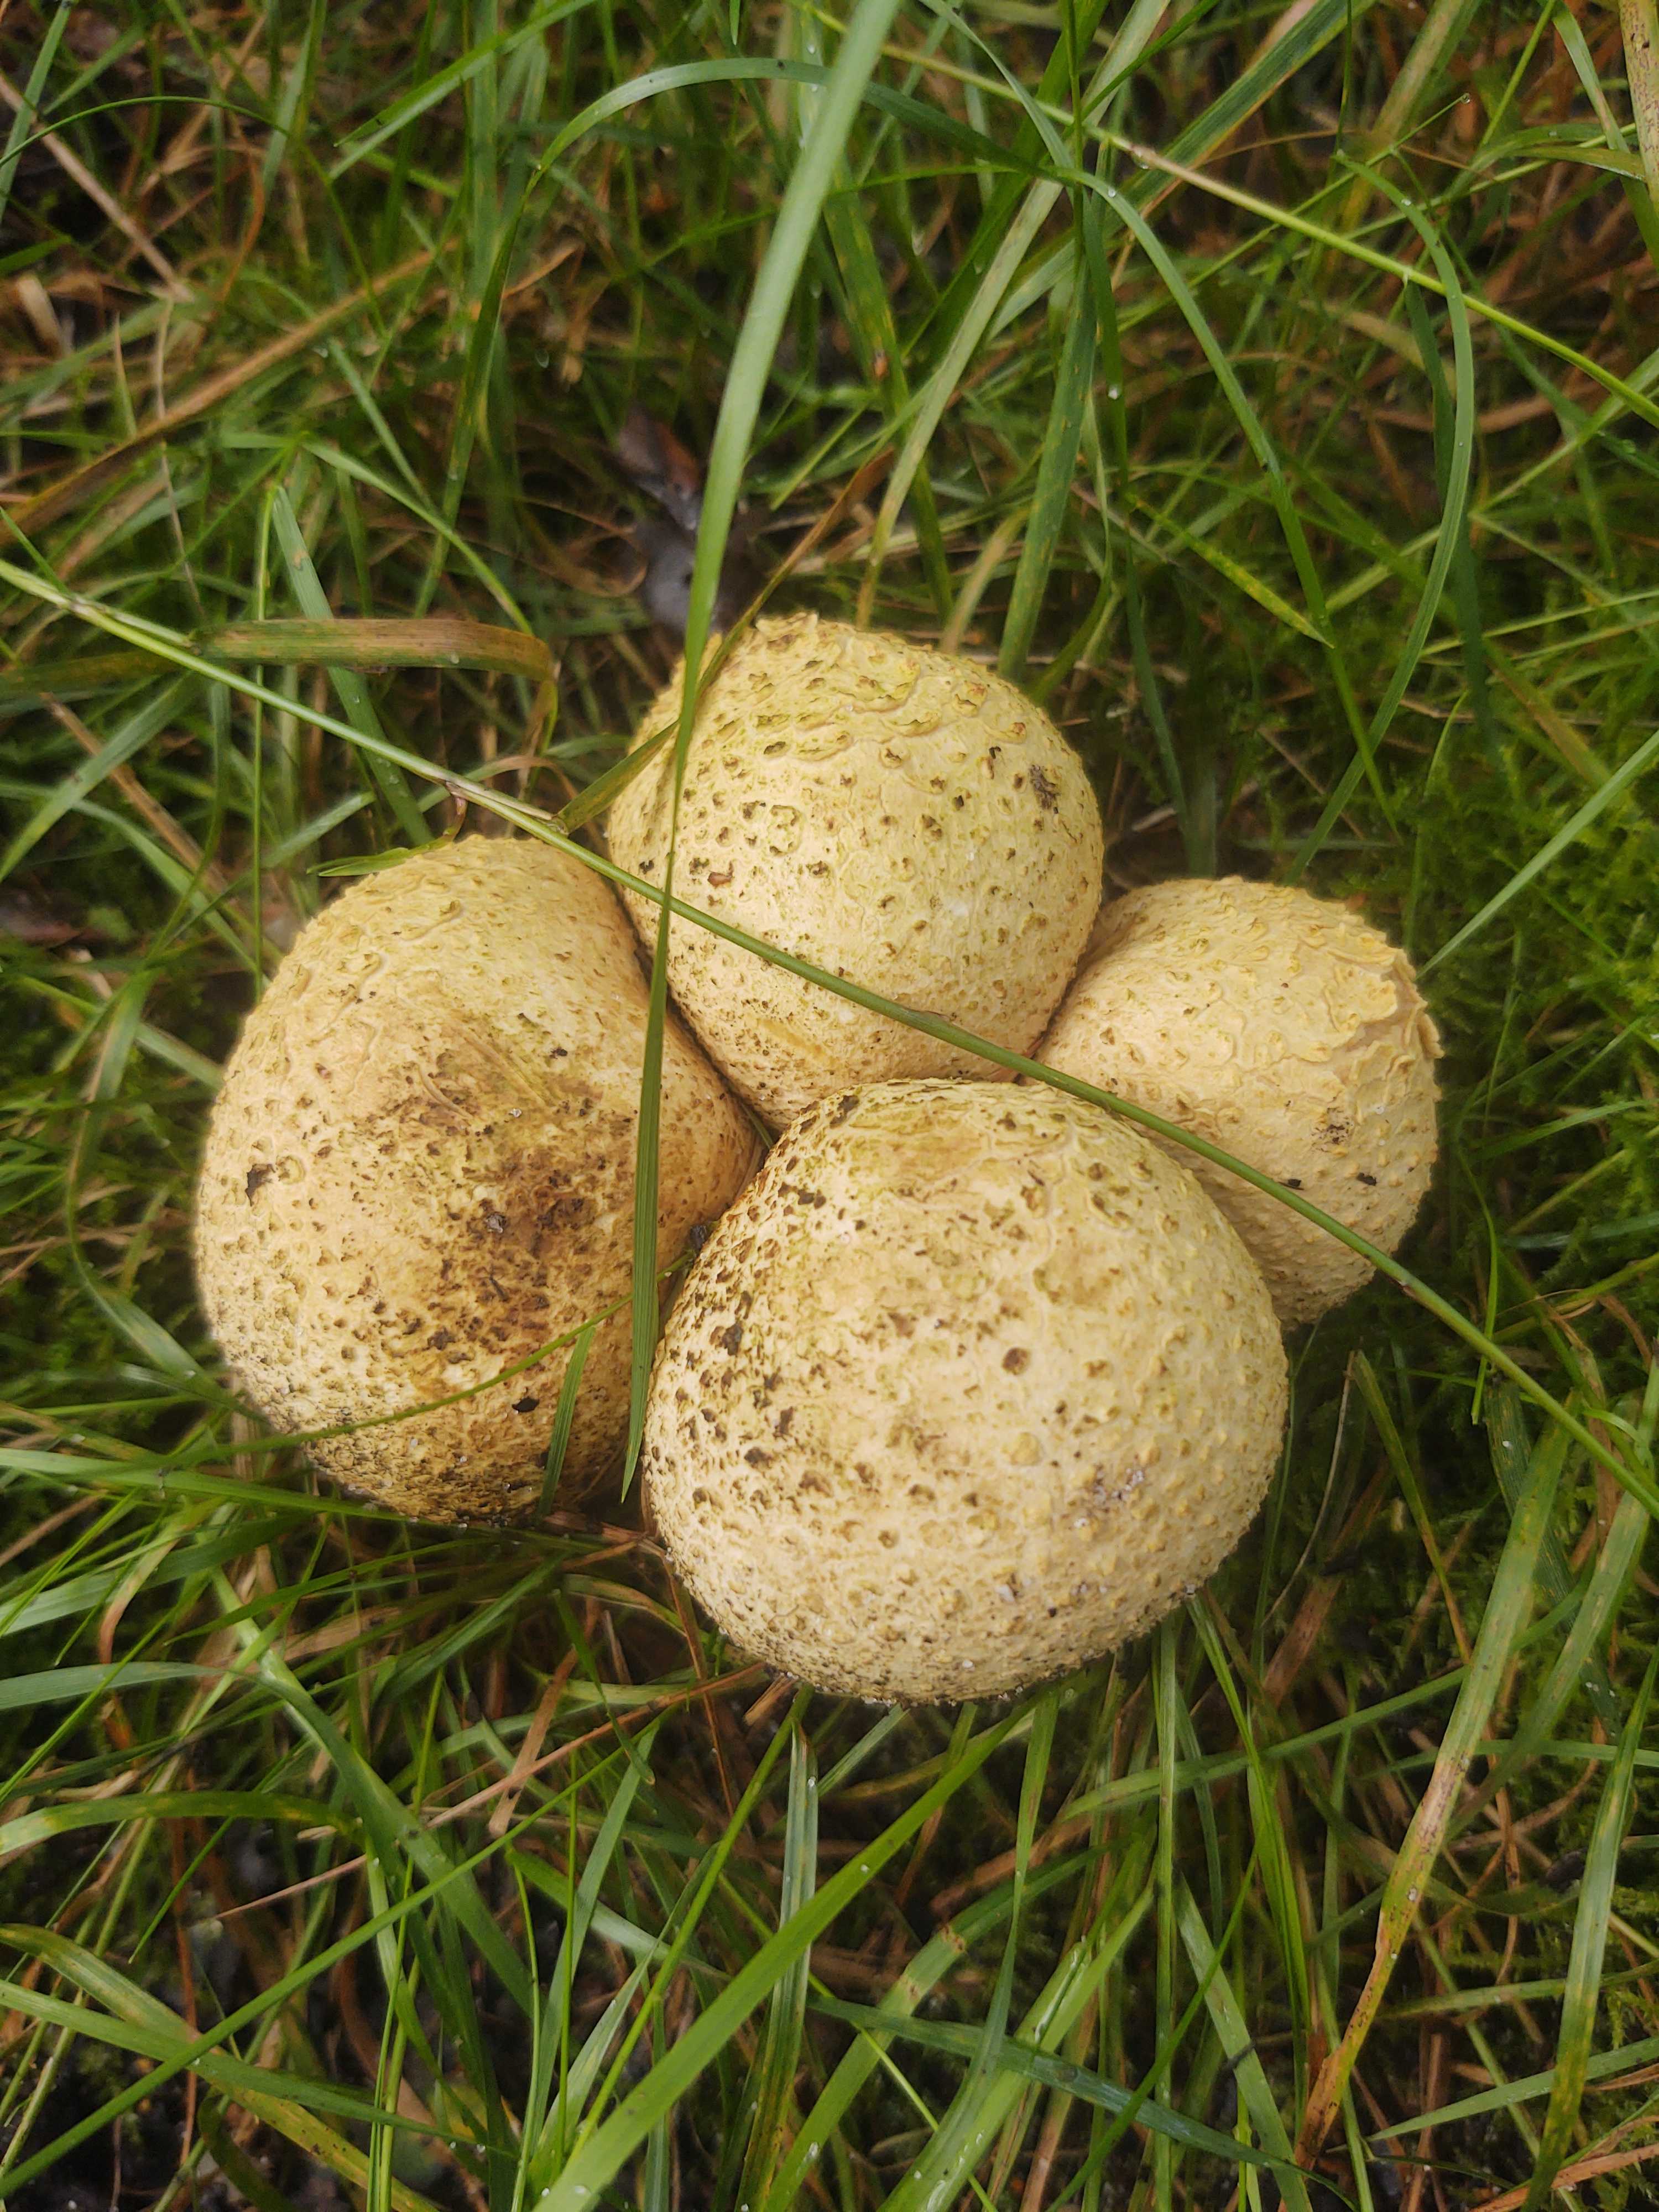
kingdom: Fungi
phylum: Basidiomycota
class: Agaricomycetes
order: Boletales
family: Sclerodermataceae
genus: Scleroderma
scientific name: Scleroderma citrinum
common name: almindelig bruskbold
